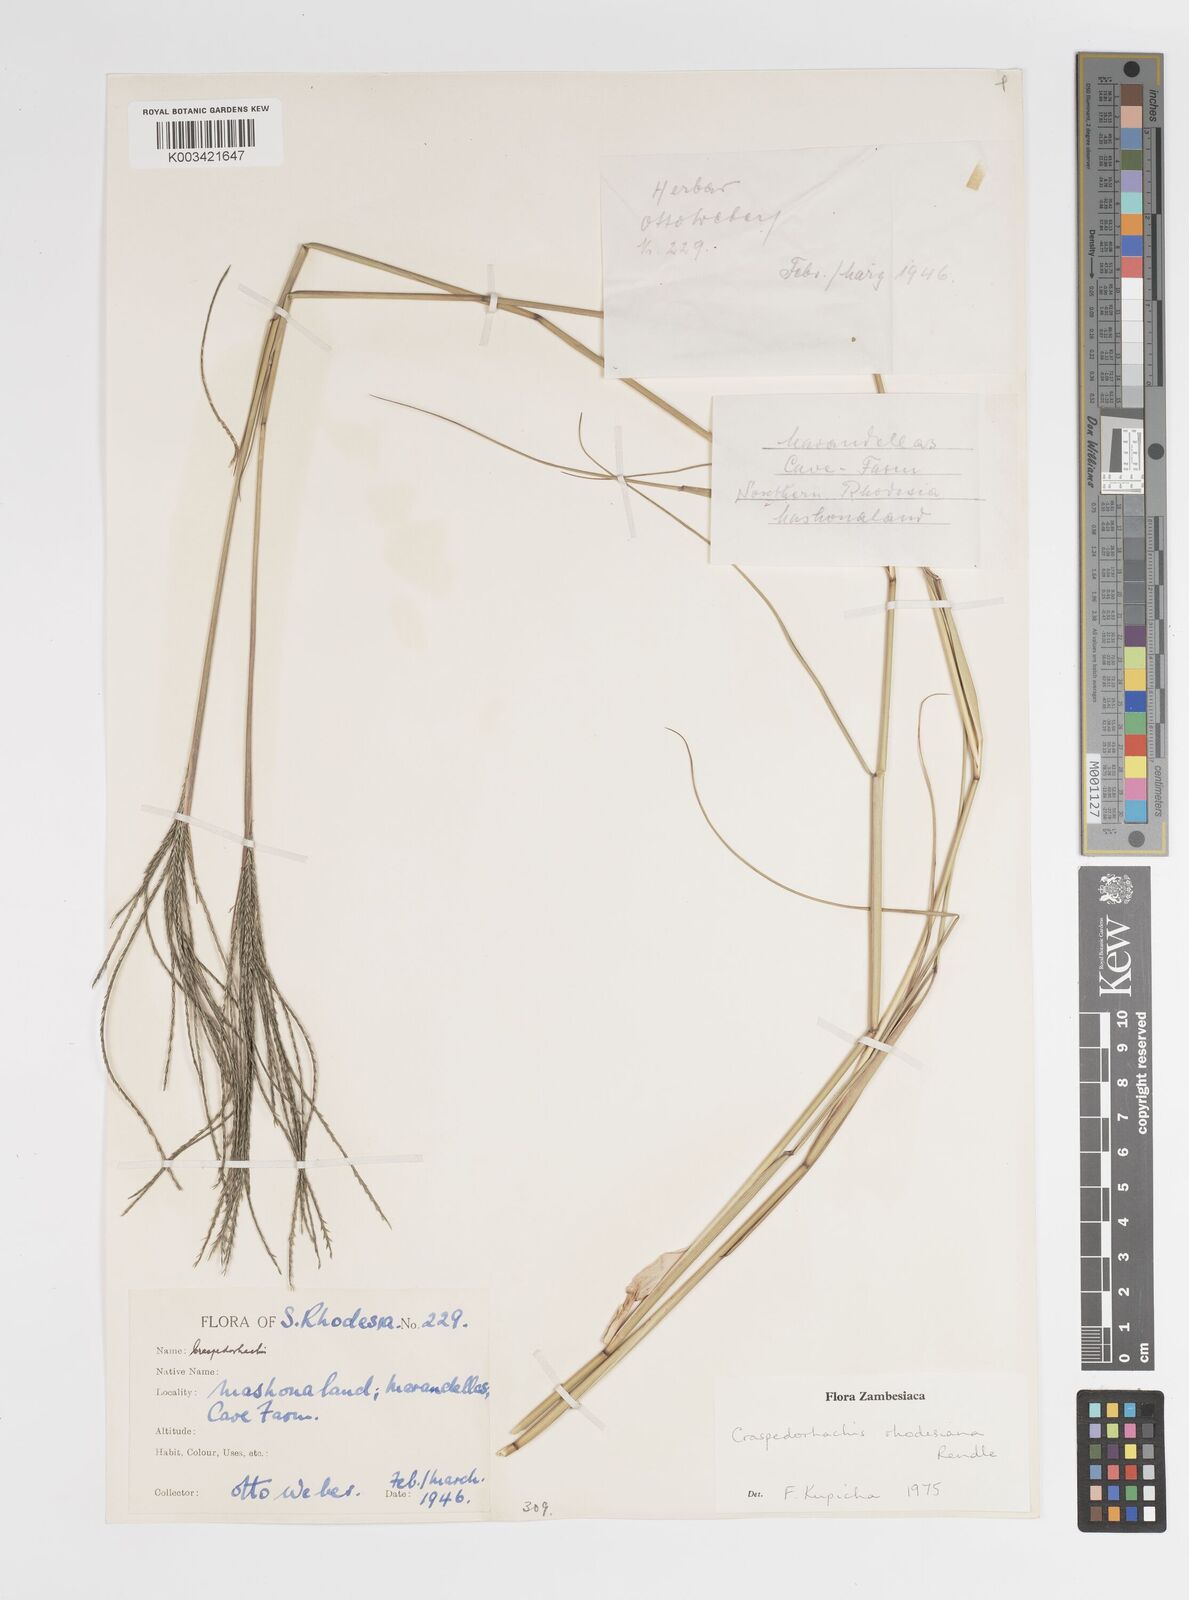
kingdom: Plantae
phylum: Tracheophyta
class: Liliopsida
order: Poales
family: Poaceae
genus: Craspedorhachis
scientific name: Craspedorhachis rhodesiana
